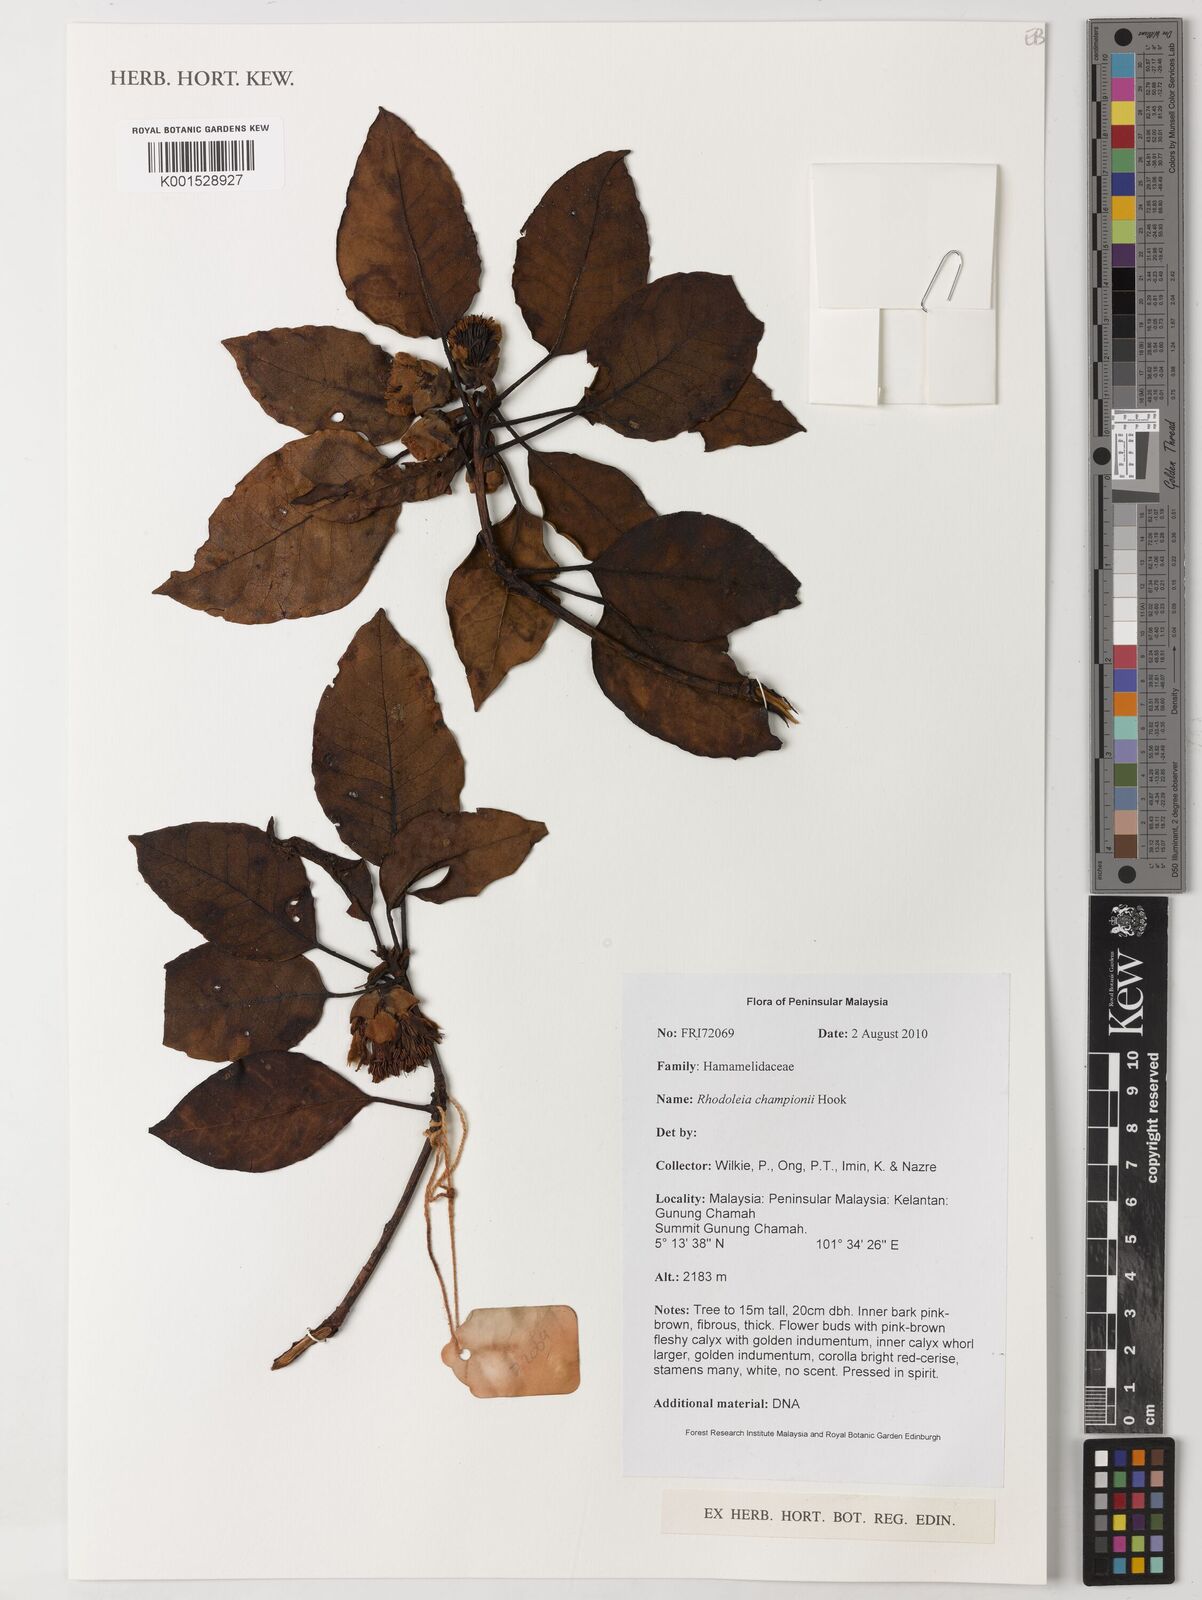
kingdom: Plantae
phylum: Tracheophyta
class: Magnoliopsida
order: Saxifragales
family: Hamamelidaceae
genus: Rhodoleia
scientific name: Rhodoleia championii
